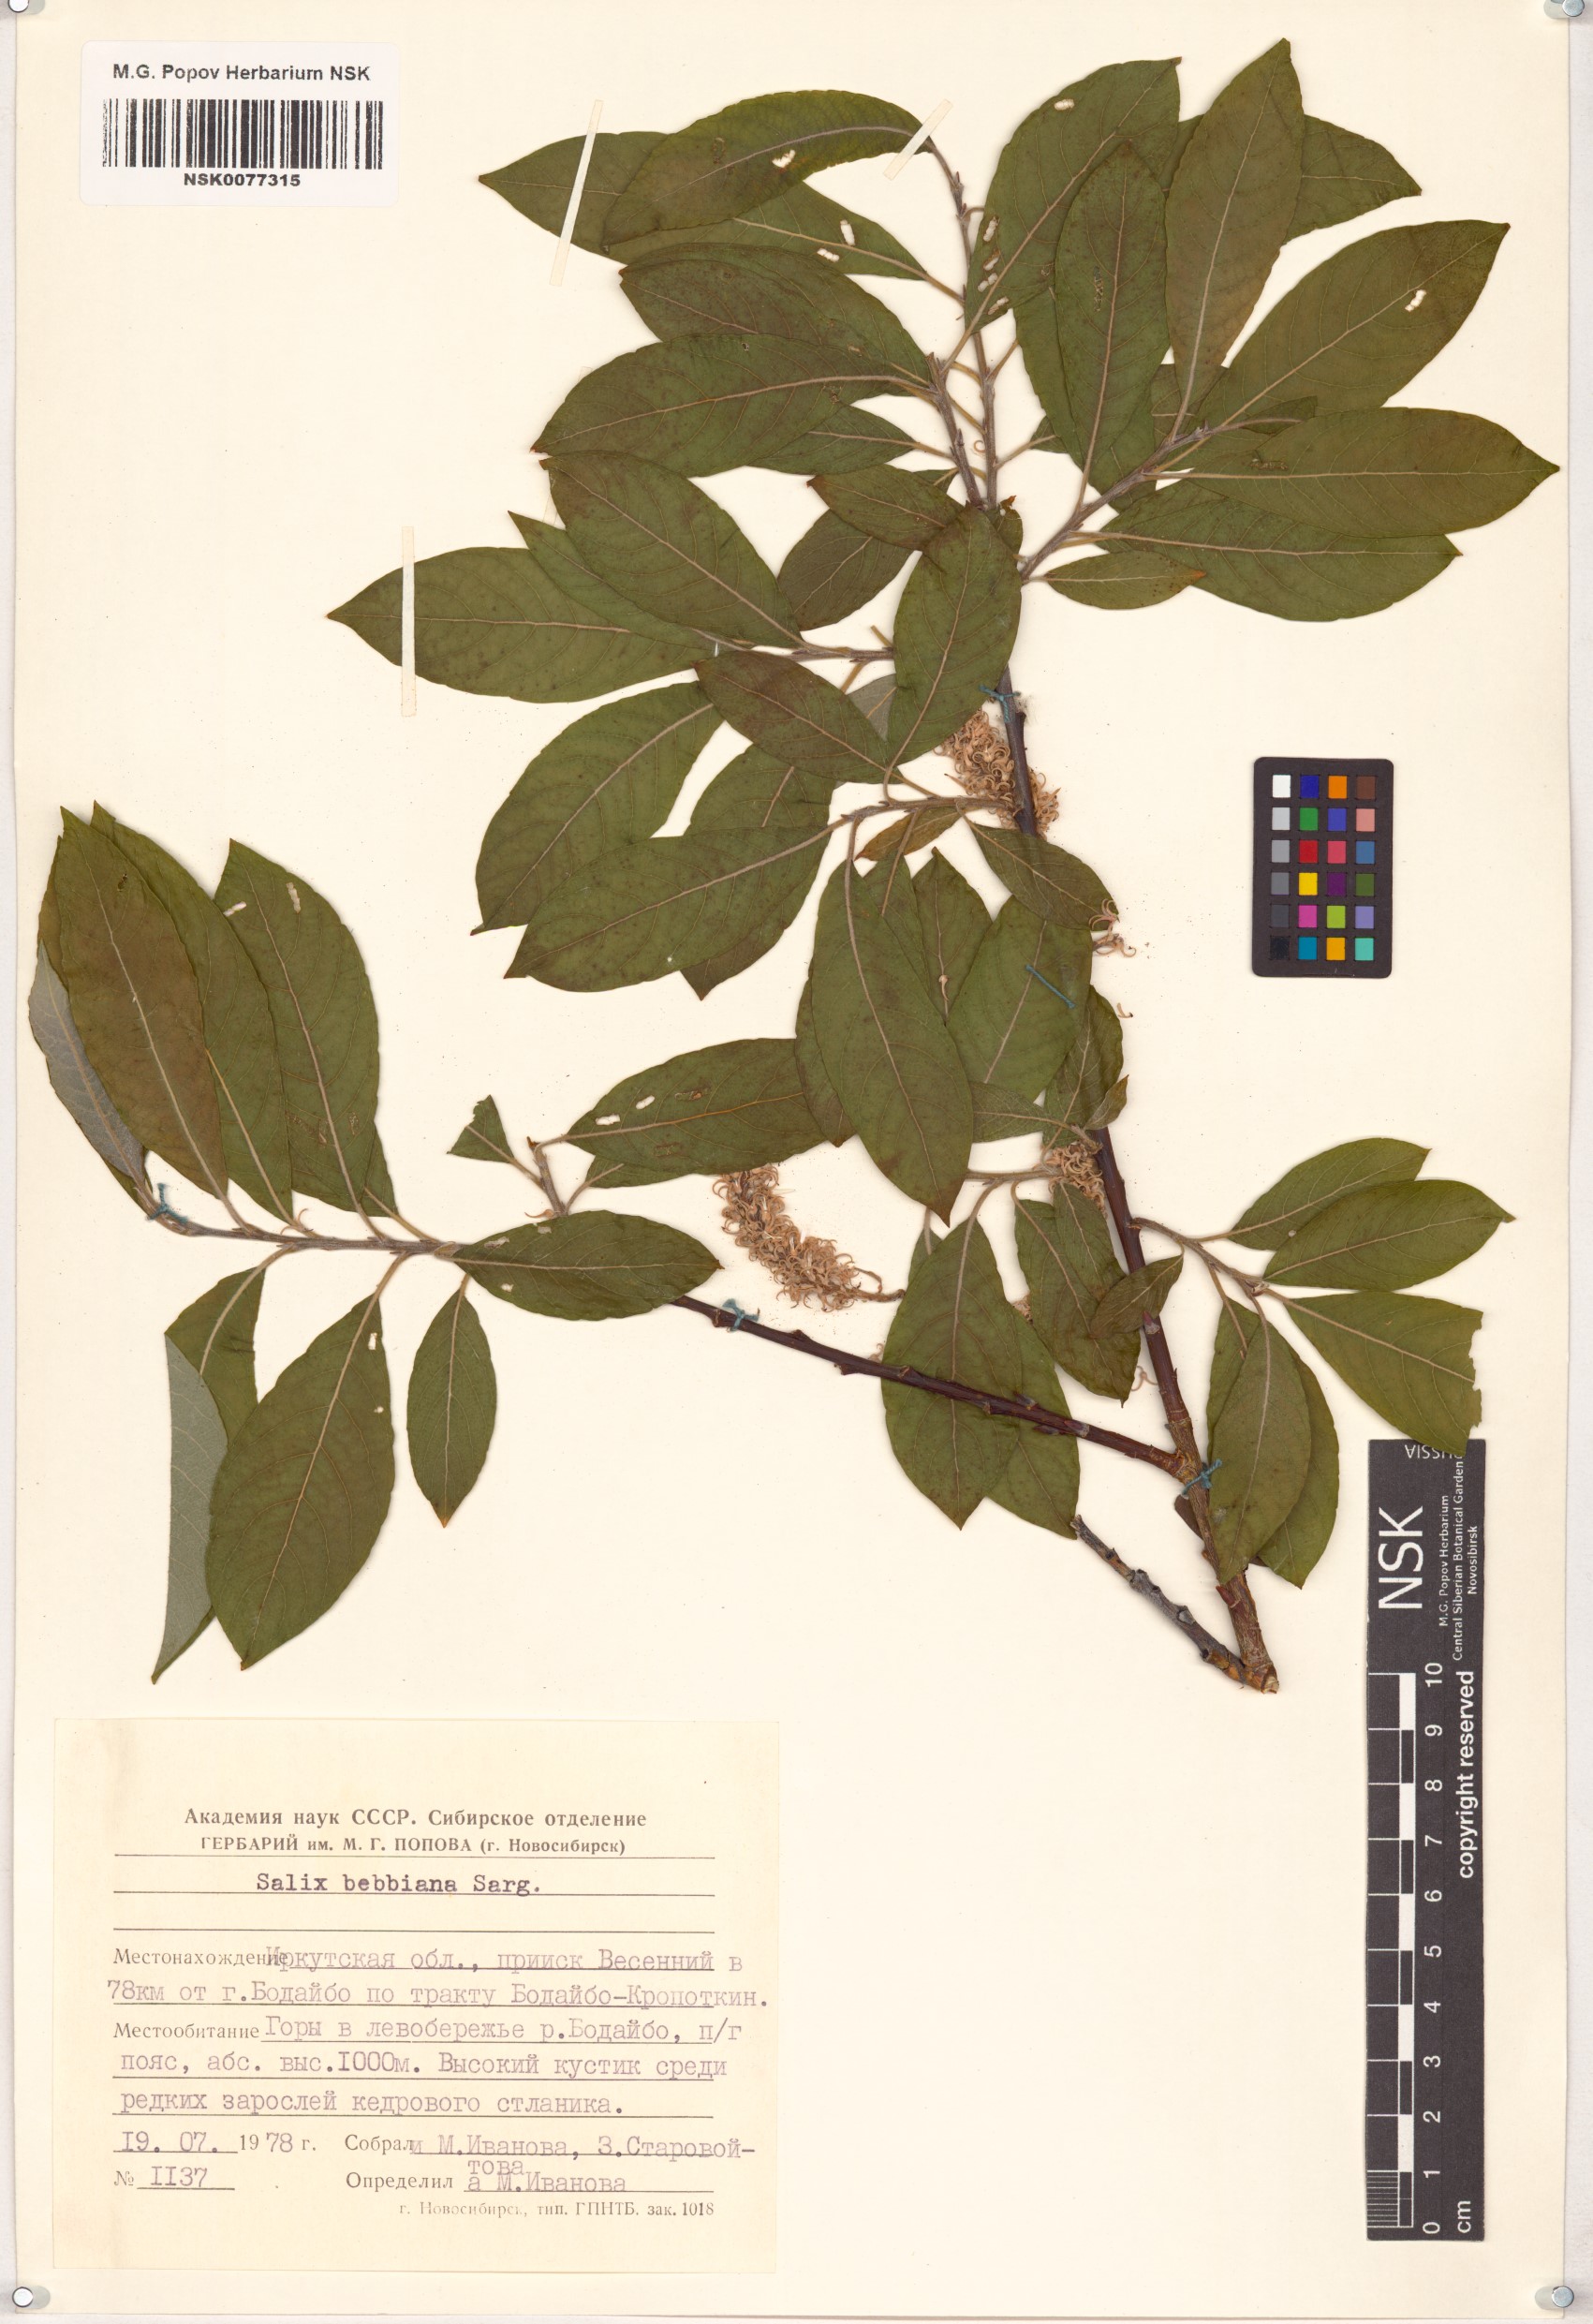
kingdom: Plantae
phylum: Tracheophyta
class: Magnoliopsida
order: Malpighiales
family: Salicaceae
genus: Salix
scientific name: Salix bebbiana
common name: Bebb's willow
